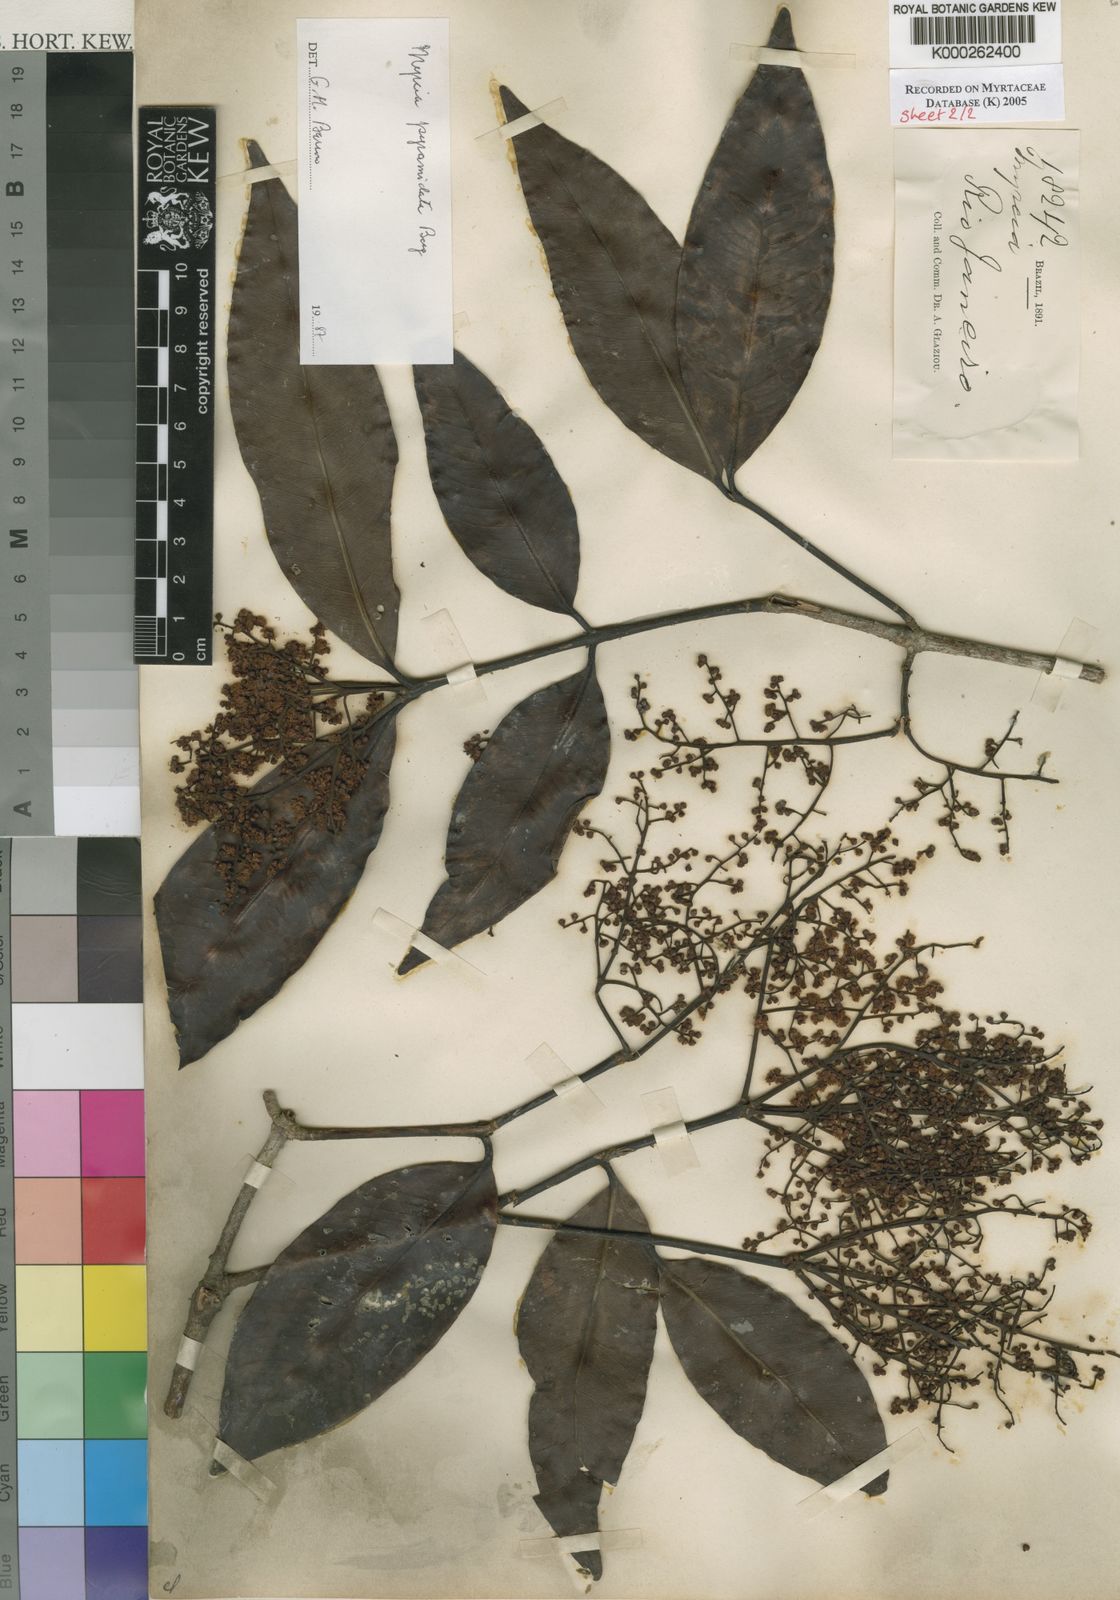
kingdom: Plantae
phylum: Tracheophyta
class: Magnoliopsida
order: Myrtales
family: Myrtaceae
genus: Myrcia
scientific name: Myrcia
